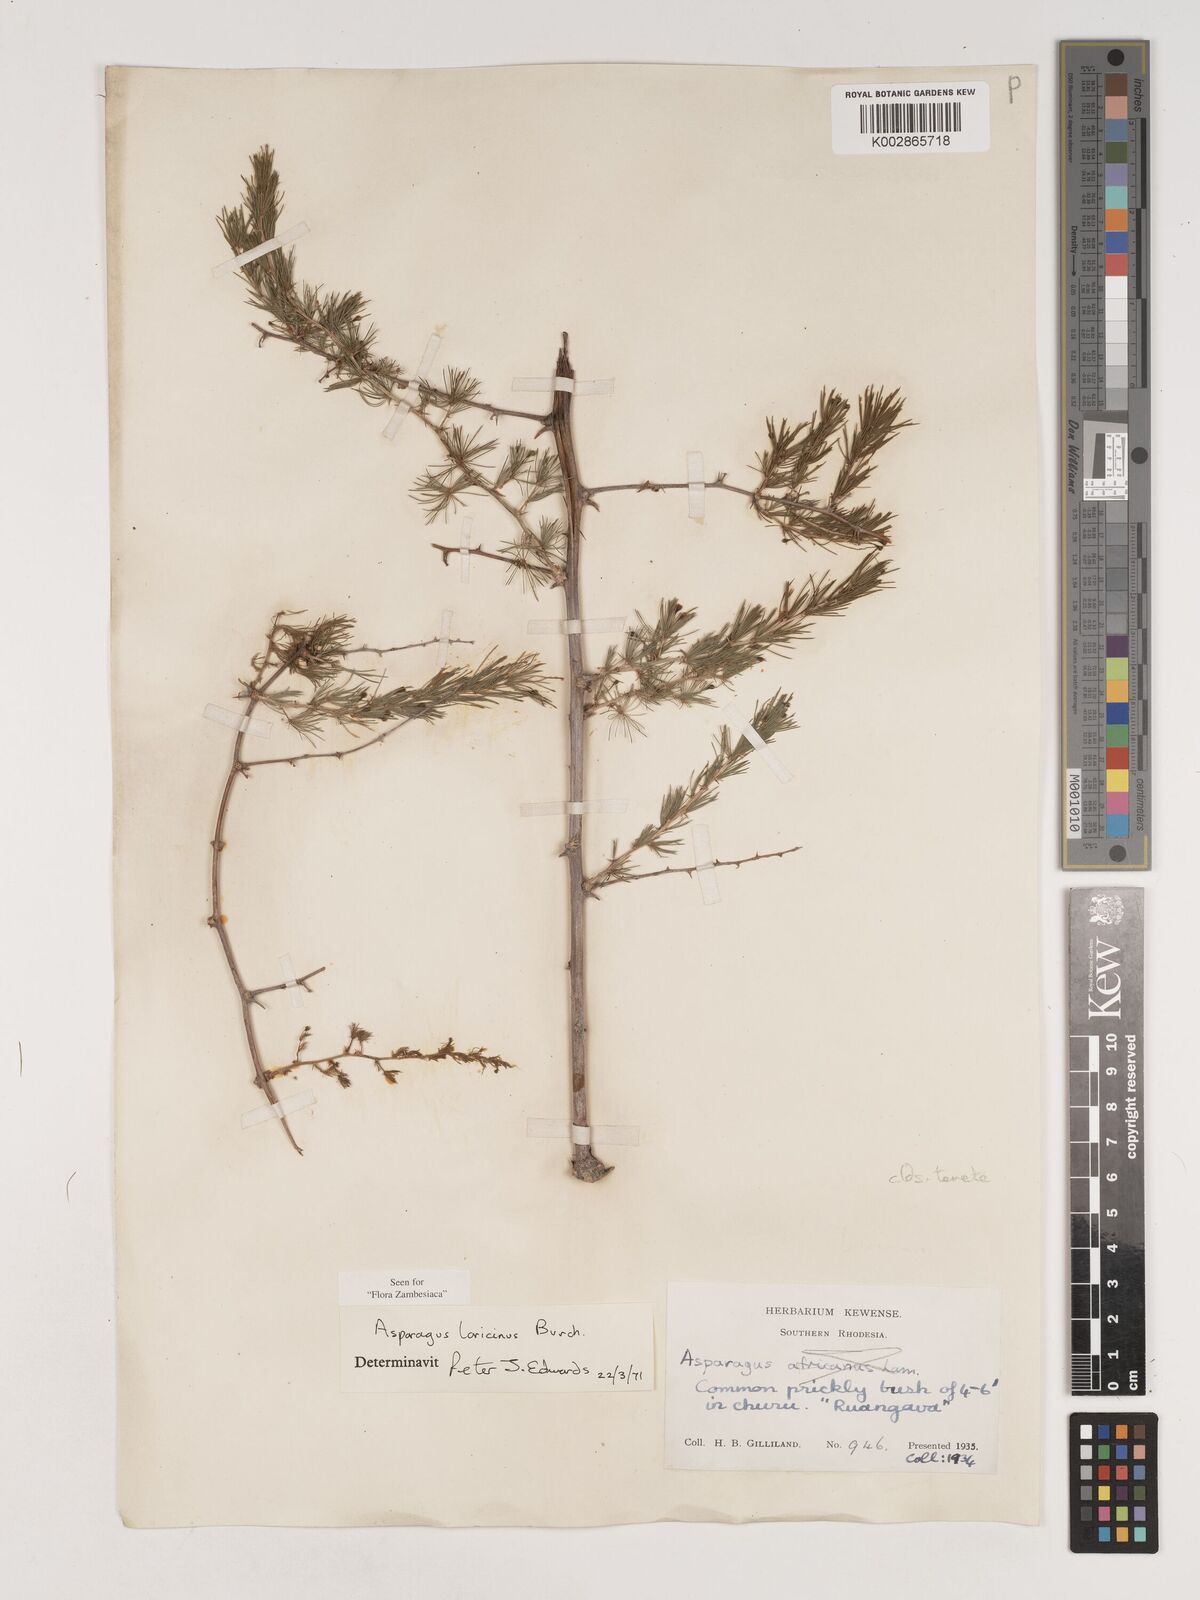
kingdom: Plantae
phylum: Tracheophyta
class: Liliopsida
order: Asparagales
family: Asparagaceae
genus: Asparagus
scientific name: Asparagus laricinus
